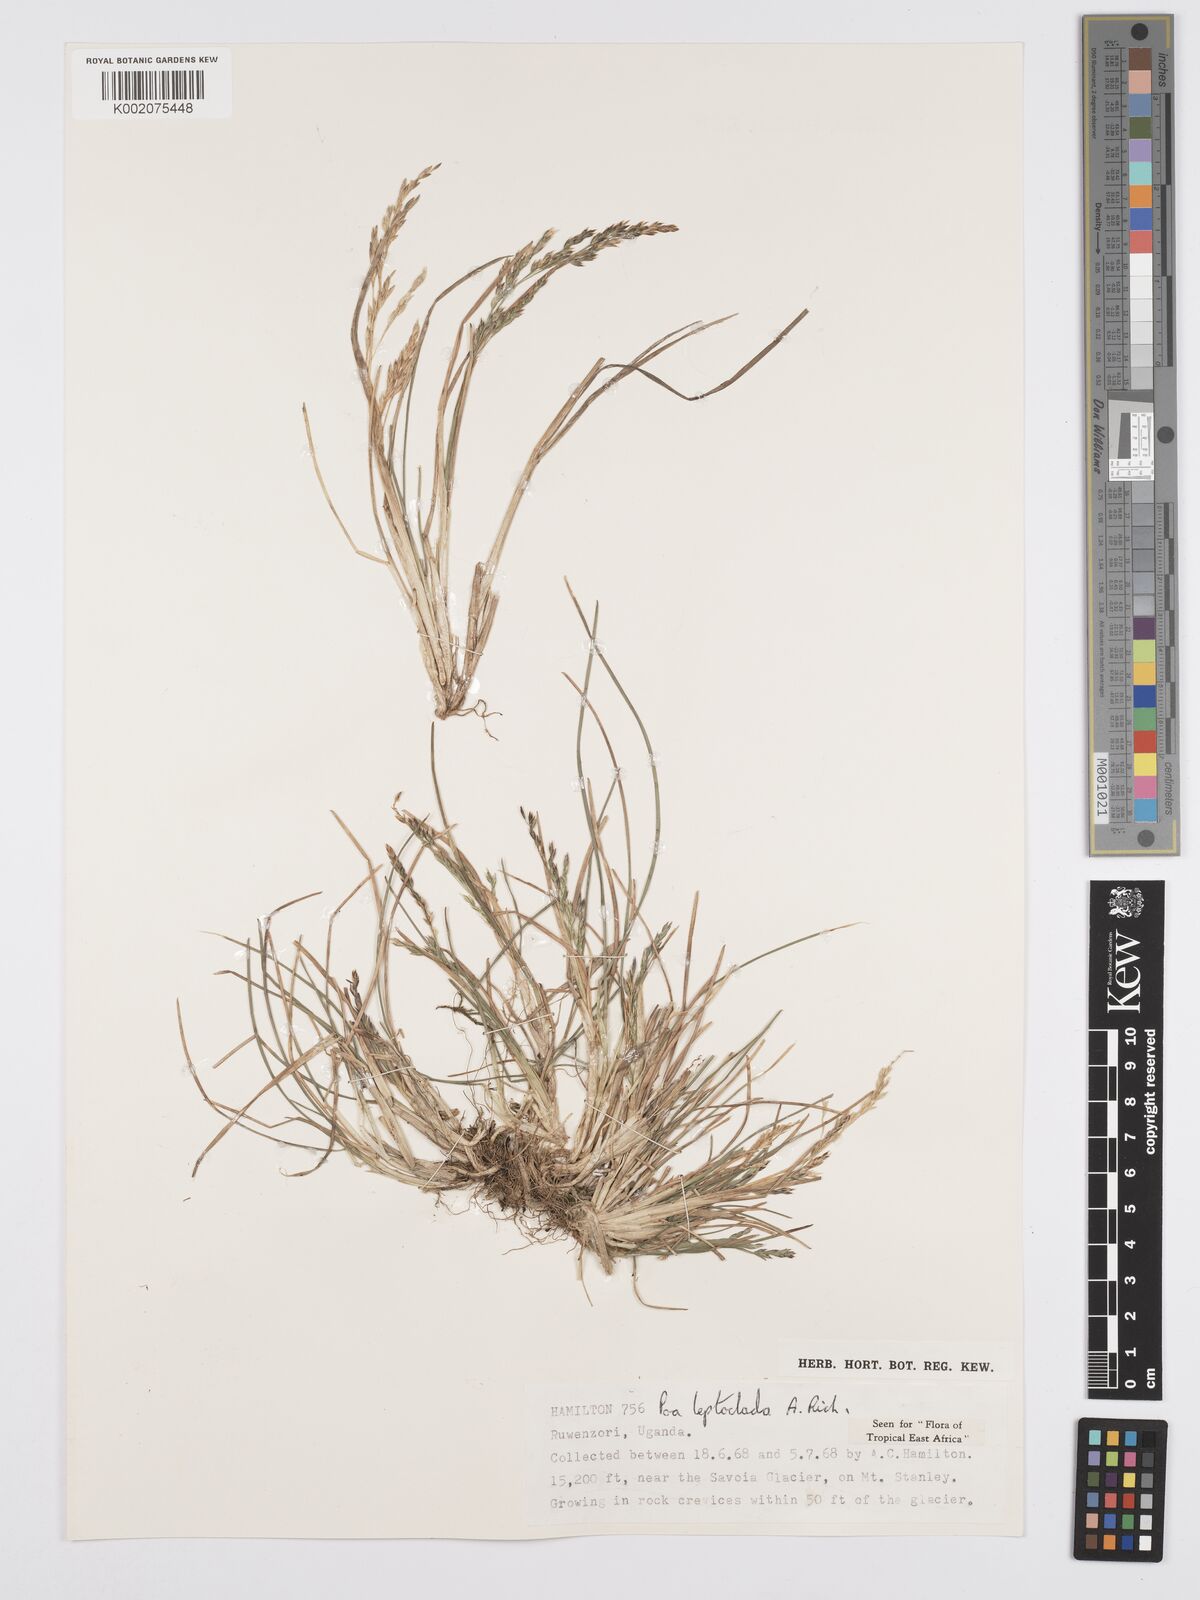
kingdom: Plantae
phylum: Tracheophyta
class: Liliopsida
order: Poales
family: Poaceae
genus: Poa
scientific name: Poa
